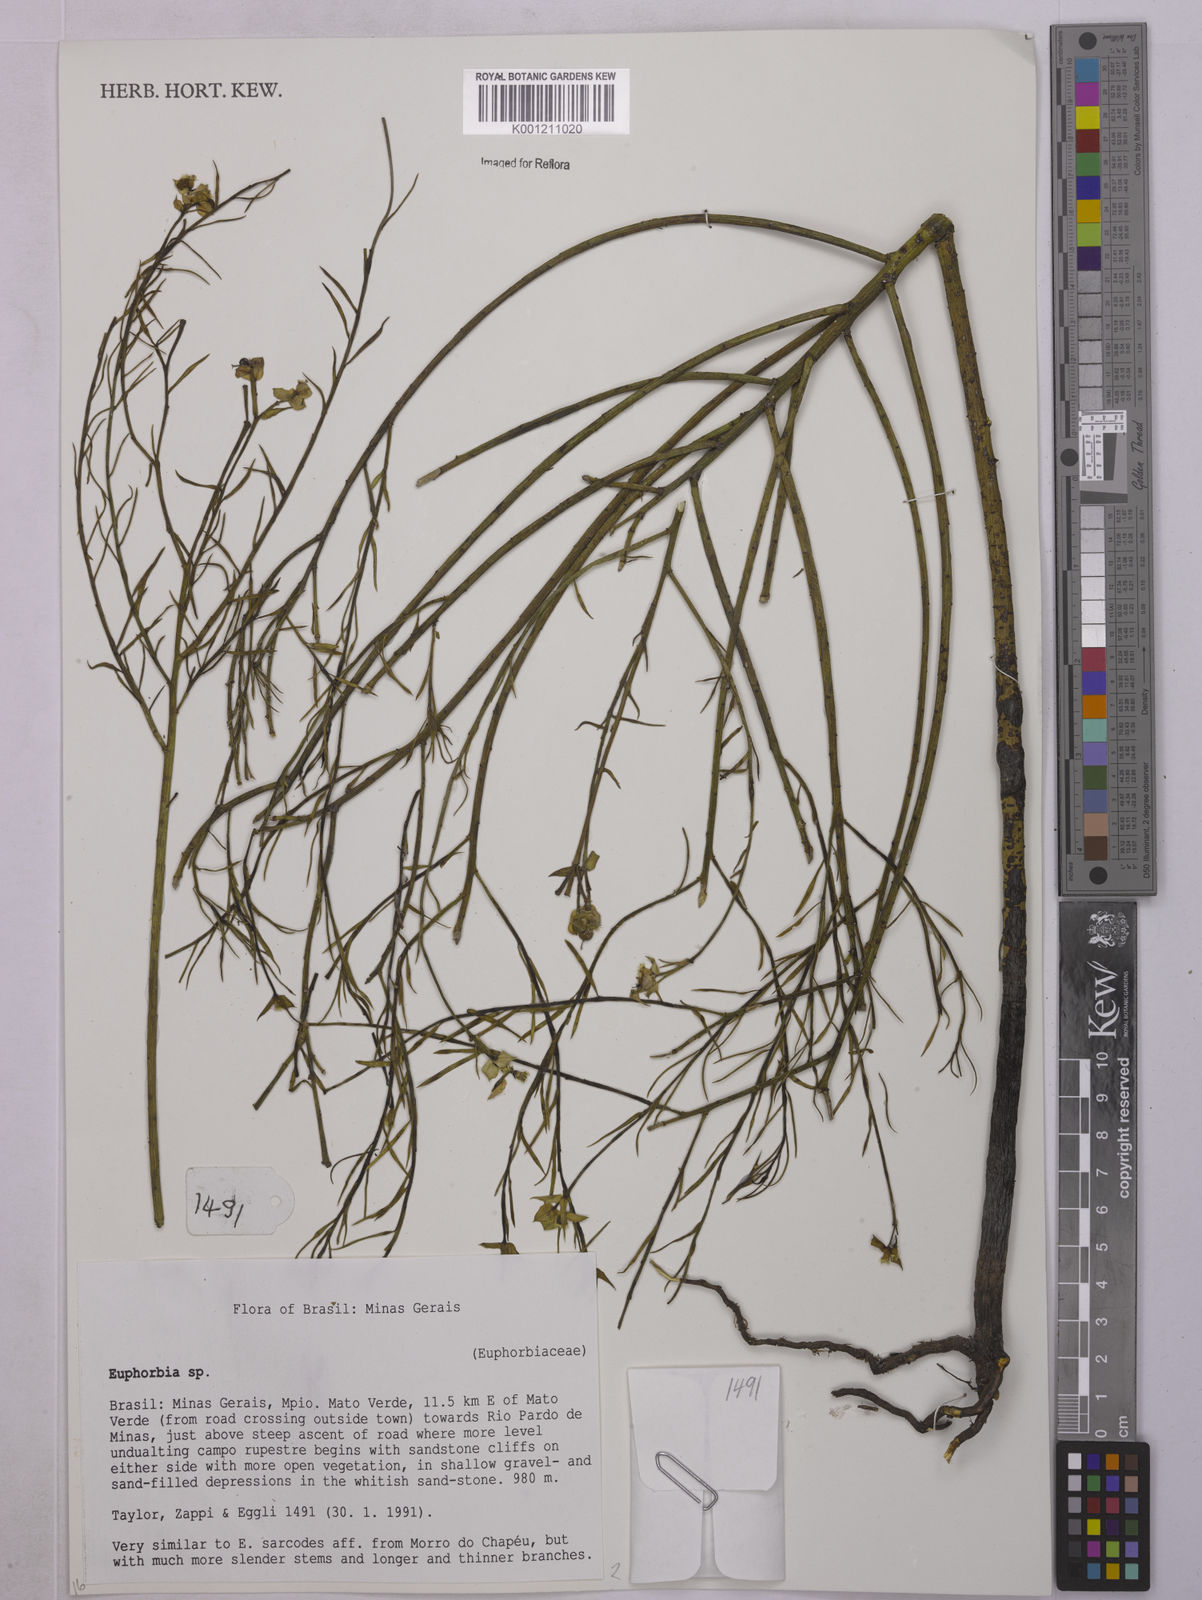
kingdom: Plantae
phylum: Tracheophyta
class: Magnoliopsida
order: Malpighiales
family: Euphorbiaceae
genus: Euphorbia
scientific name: Euphorbia
